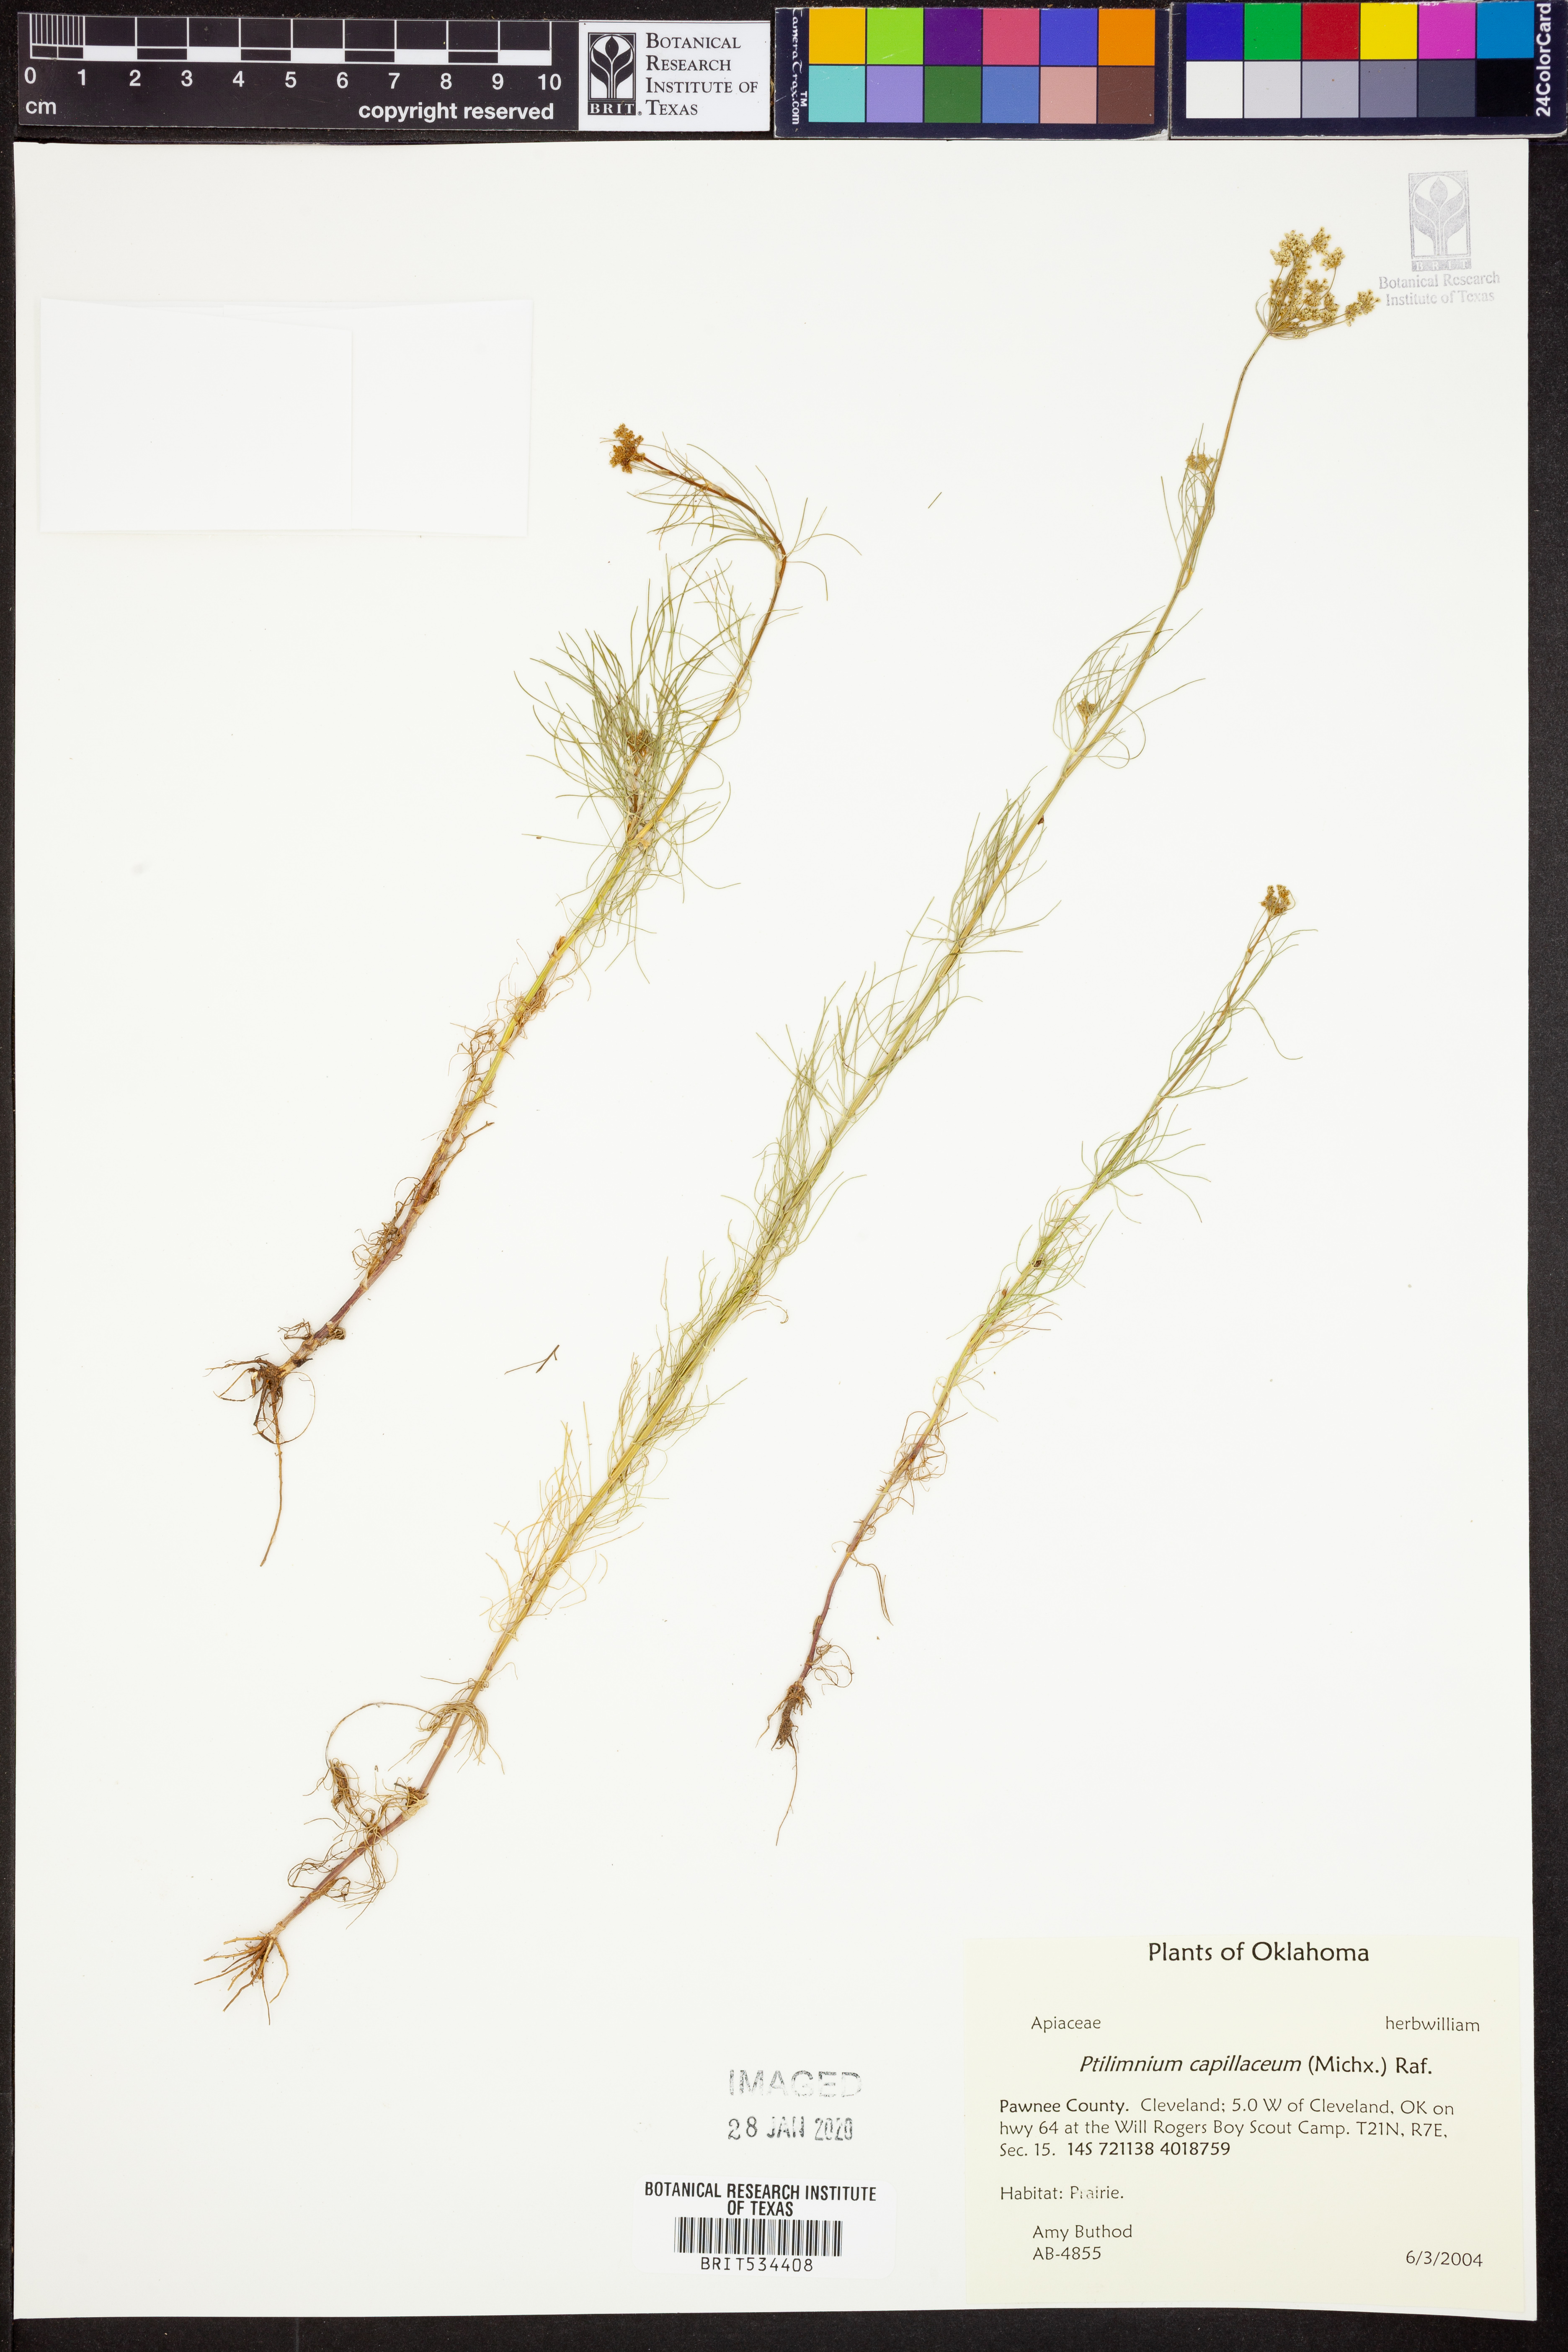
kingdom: Plantae
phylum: Tracheophyta
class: Magnoliopsida
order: Apiales
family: Apiaceae
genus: Ptilimnium
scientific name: Ptilimnium capillaceum
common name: Herbwilliam
